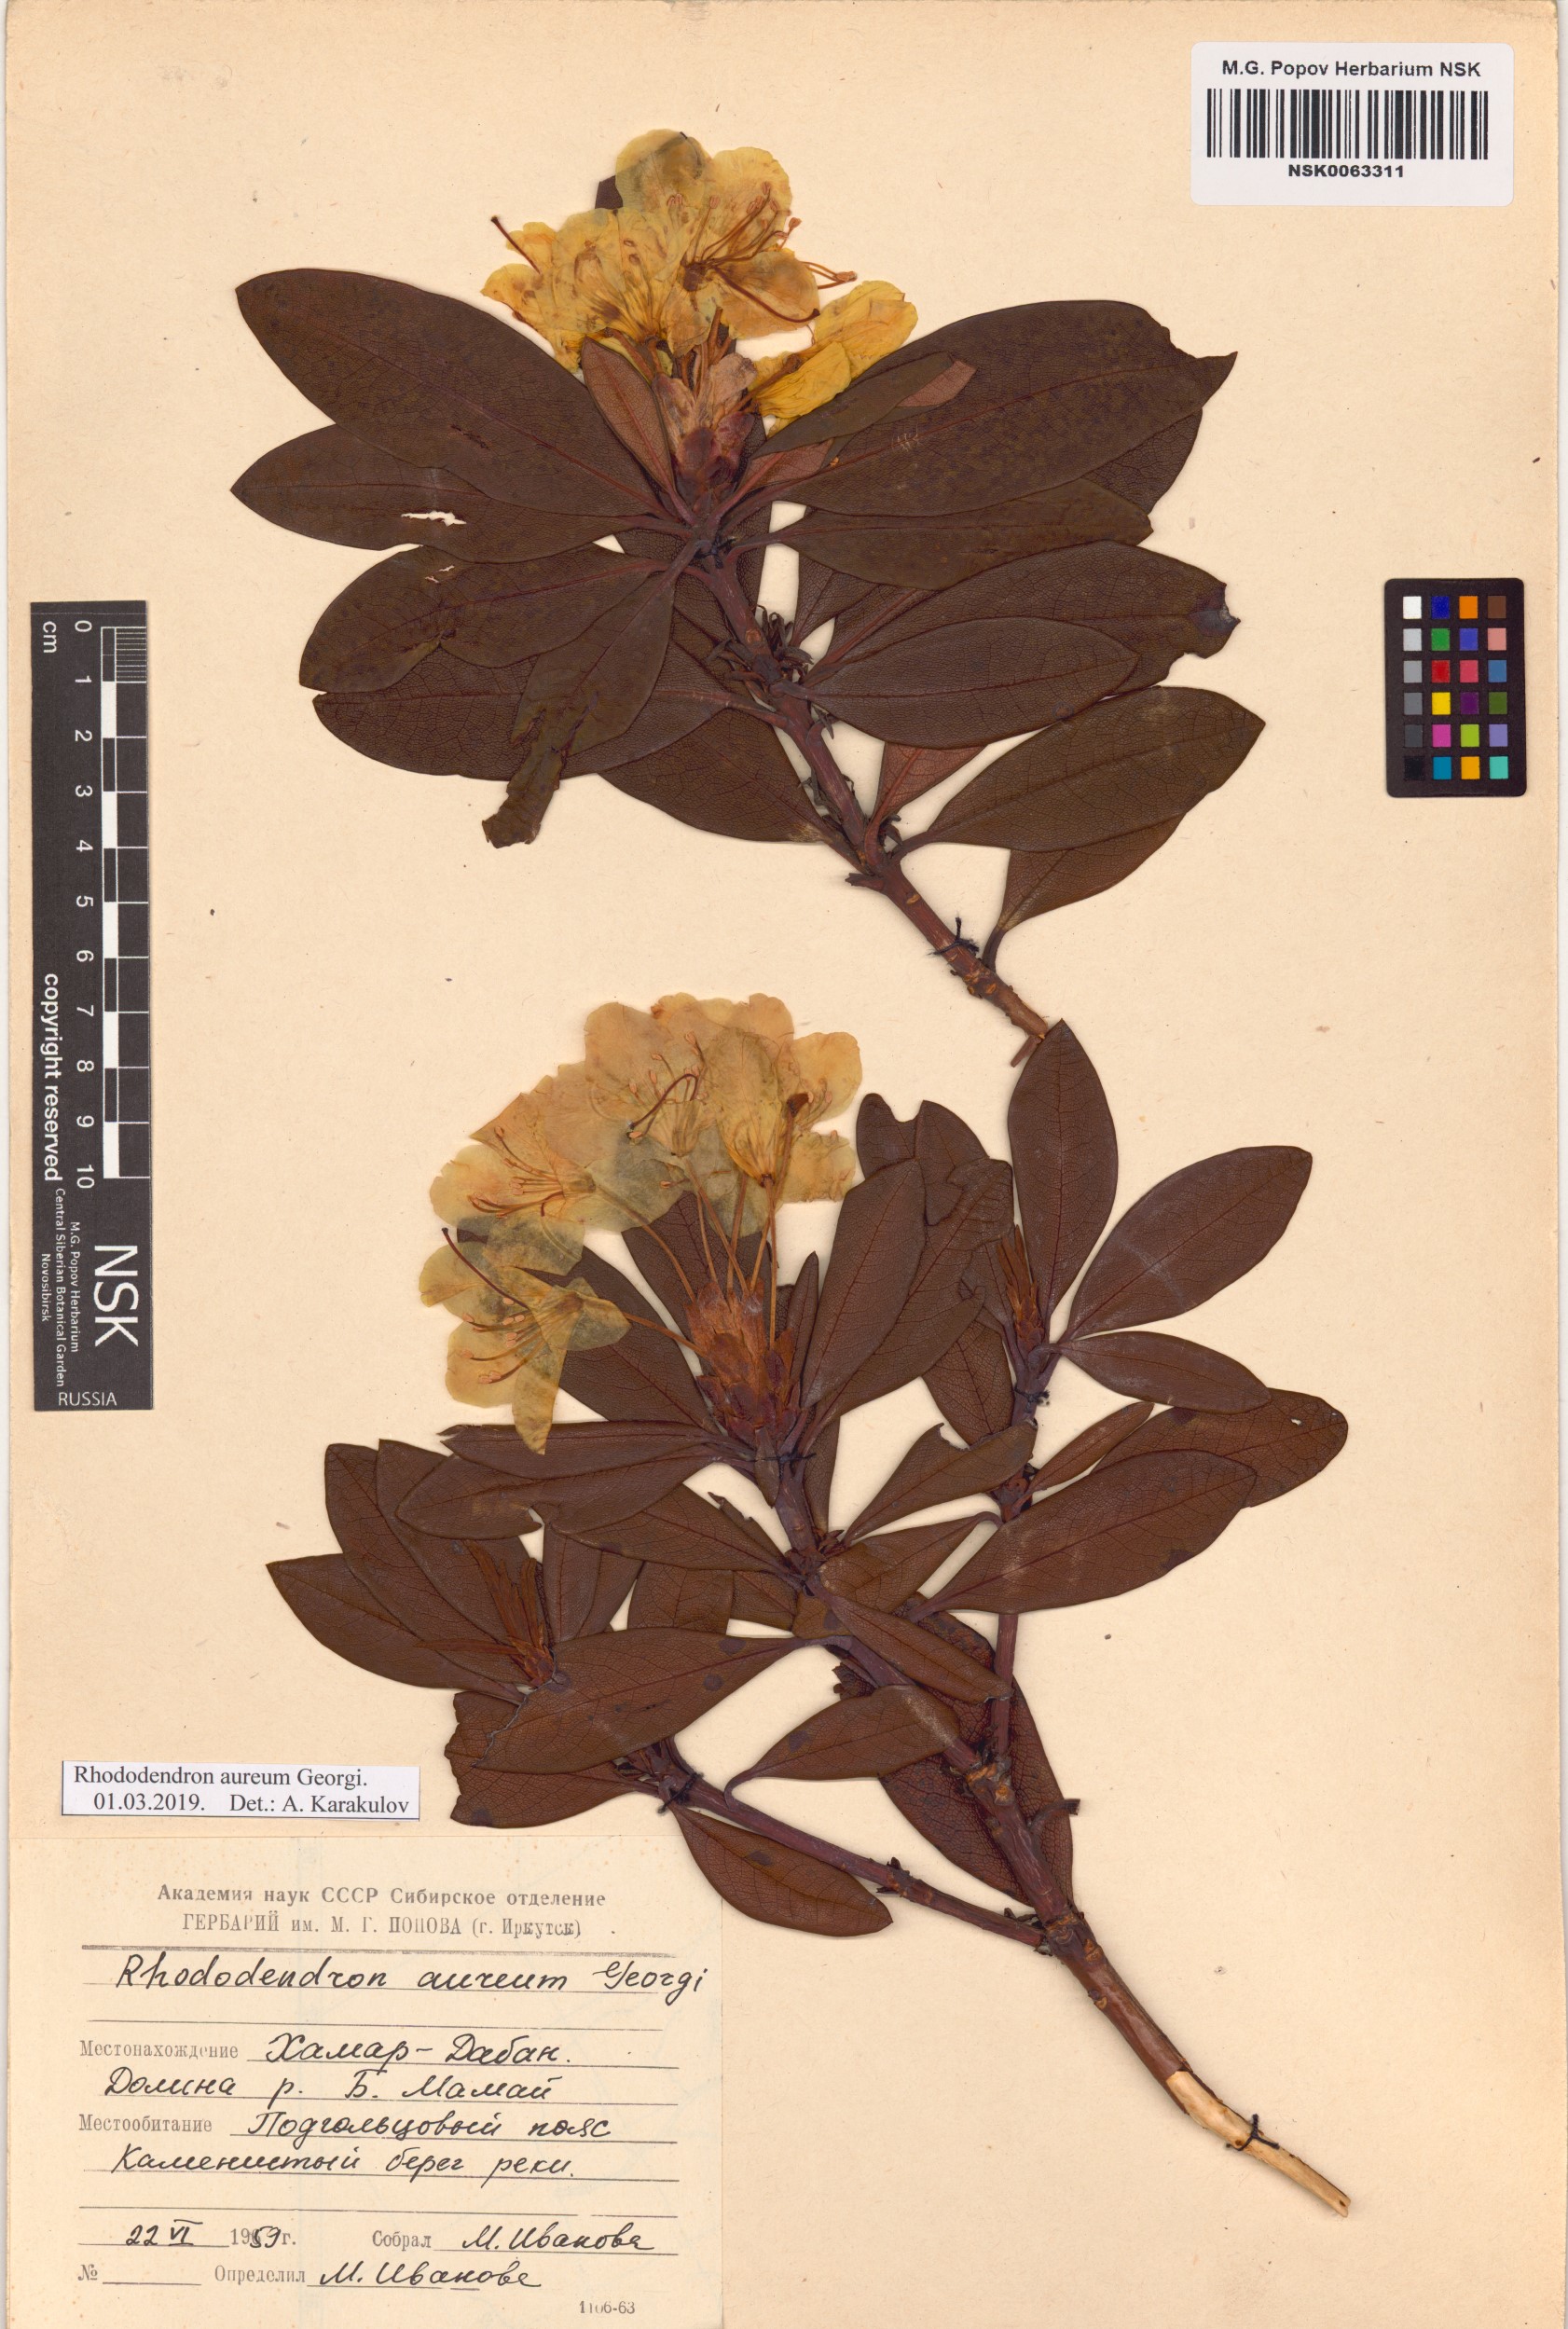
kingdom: Plantae
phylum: Tracheophyta
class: Magnoliopsida
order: Ericales
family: Ericaceae
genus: Rhododendron
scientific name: Rhododendron aureum
